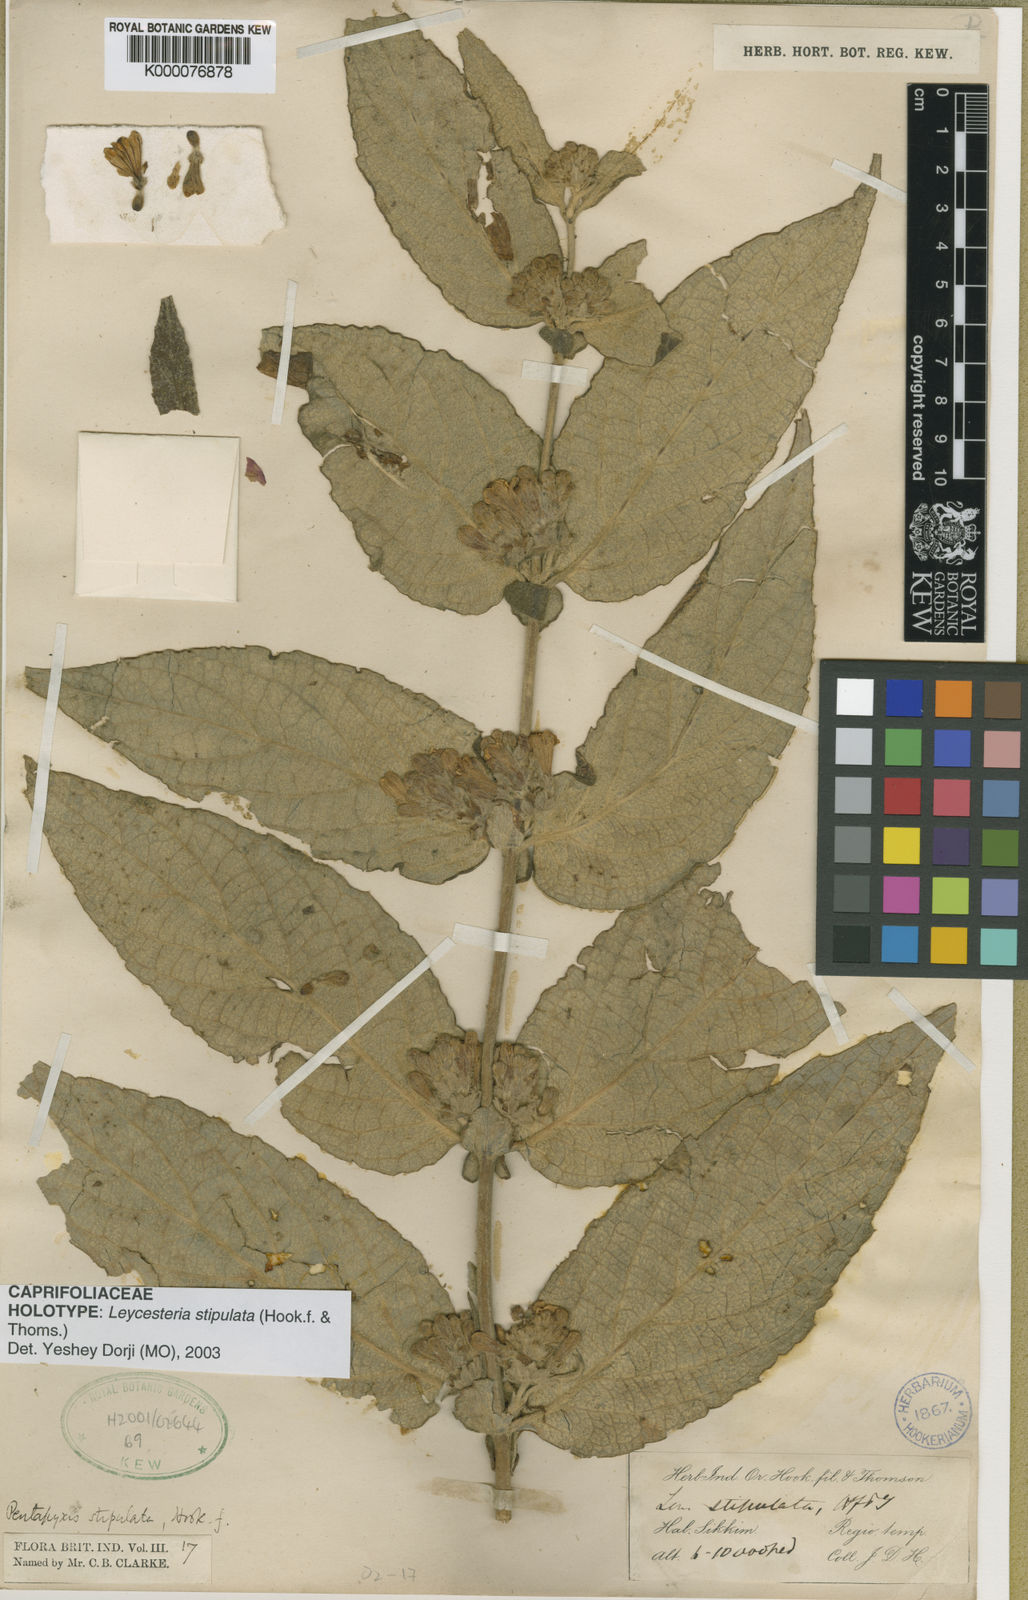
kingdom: Plantae
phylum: Tracheophyta
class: Magnoliopsida
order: Dipsacales
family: Caprifoliaceae
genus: Leycesteria
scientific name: Leycesteria stipulata
